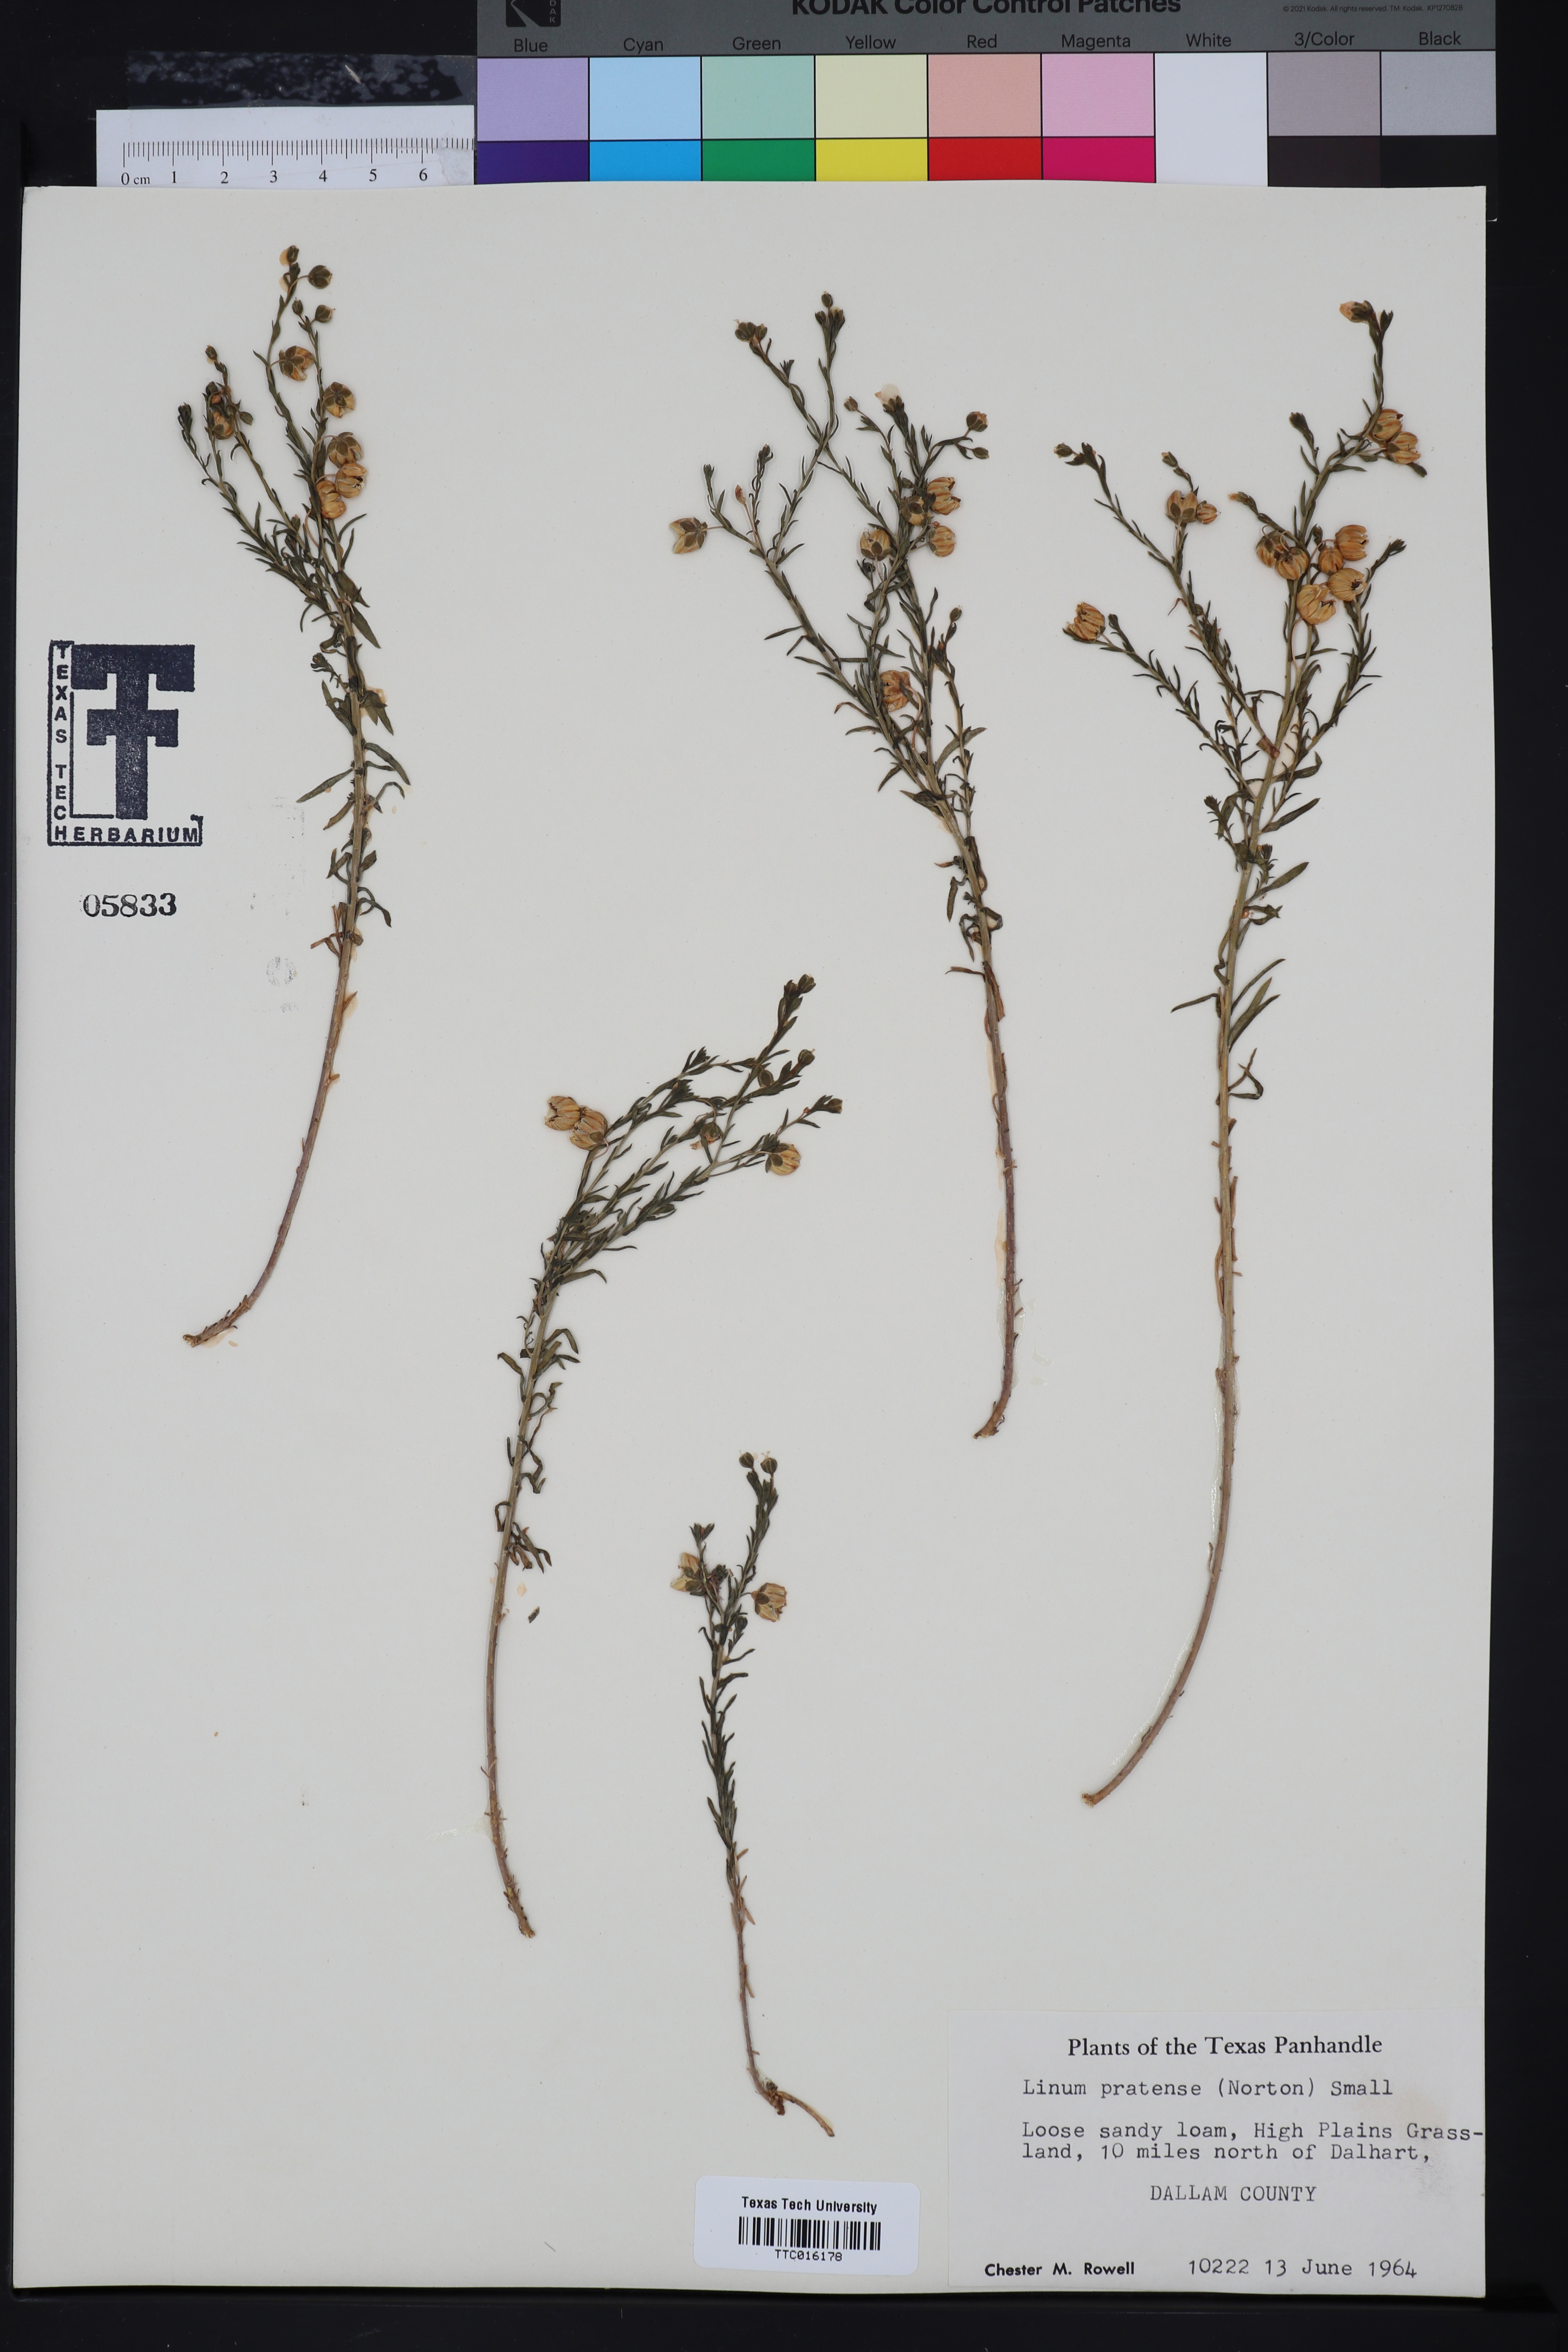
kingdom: Plantae
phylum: Tracheophyta
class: Magnoliopsida
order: Malpighiales
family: Linaceae
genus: Linum
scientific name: Linum pratense
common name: Norton's flax
